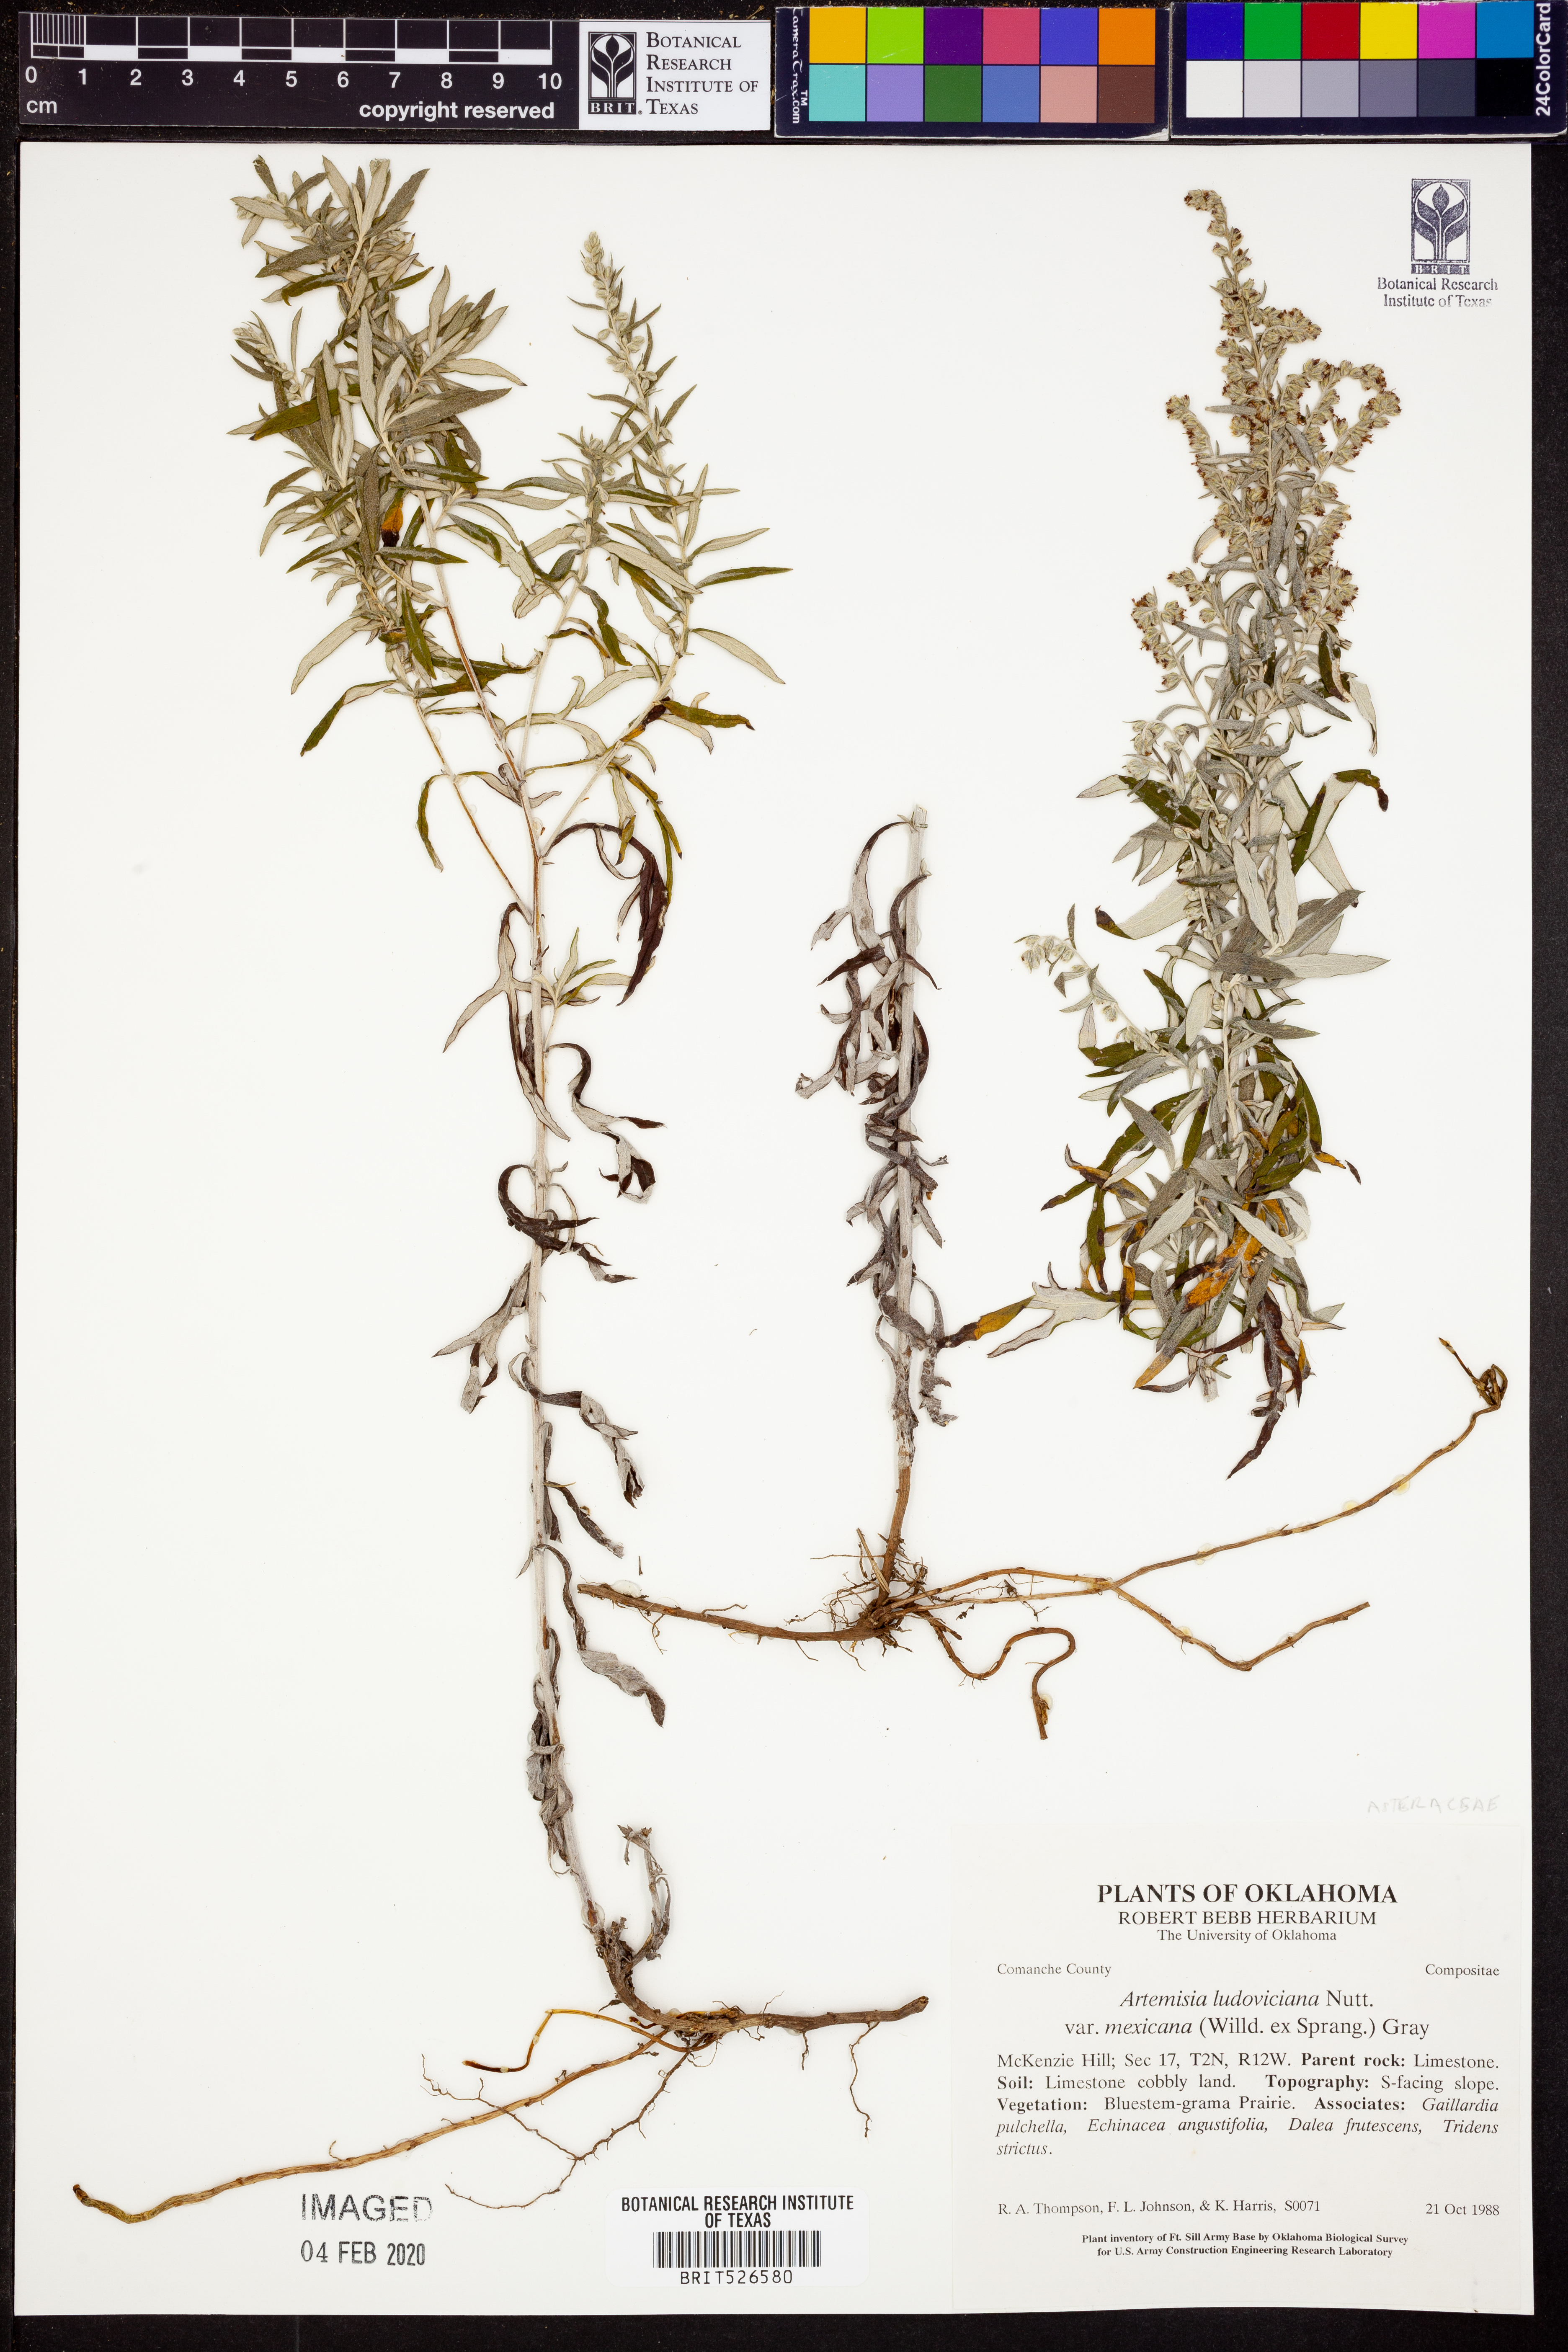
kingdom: Plantae
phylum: Tracheophyta
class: Magnoliopsida
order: Asterales
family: Asteraceae
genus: Artemisia
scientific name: Artemisia ludoviciana
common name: Western mugwort
